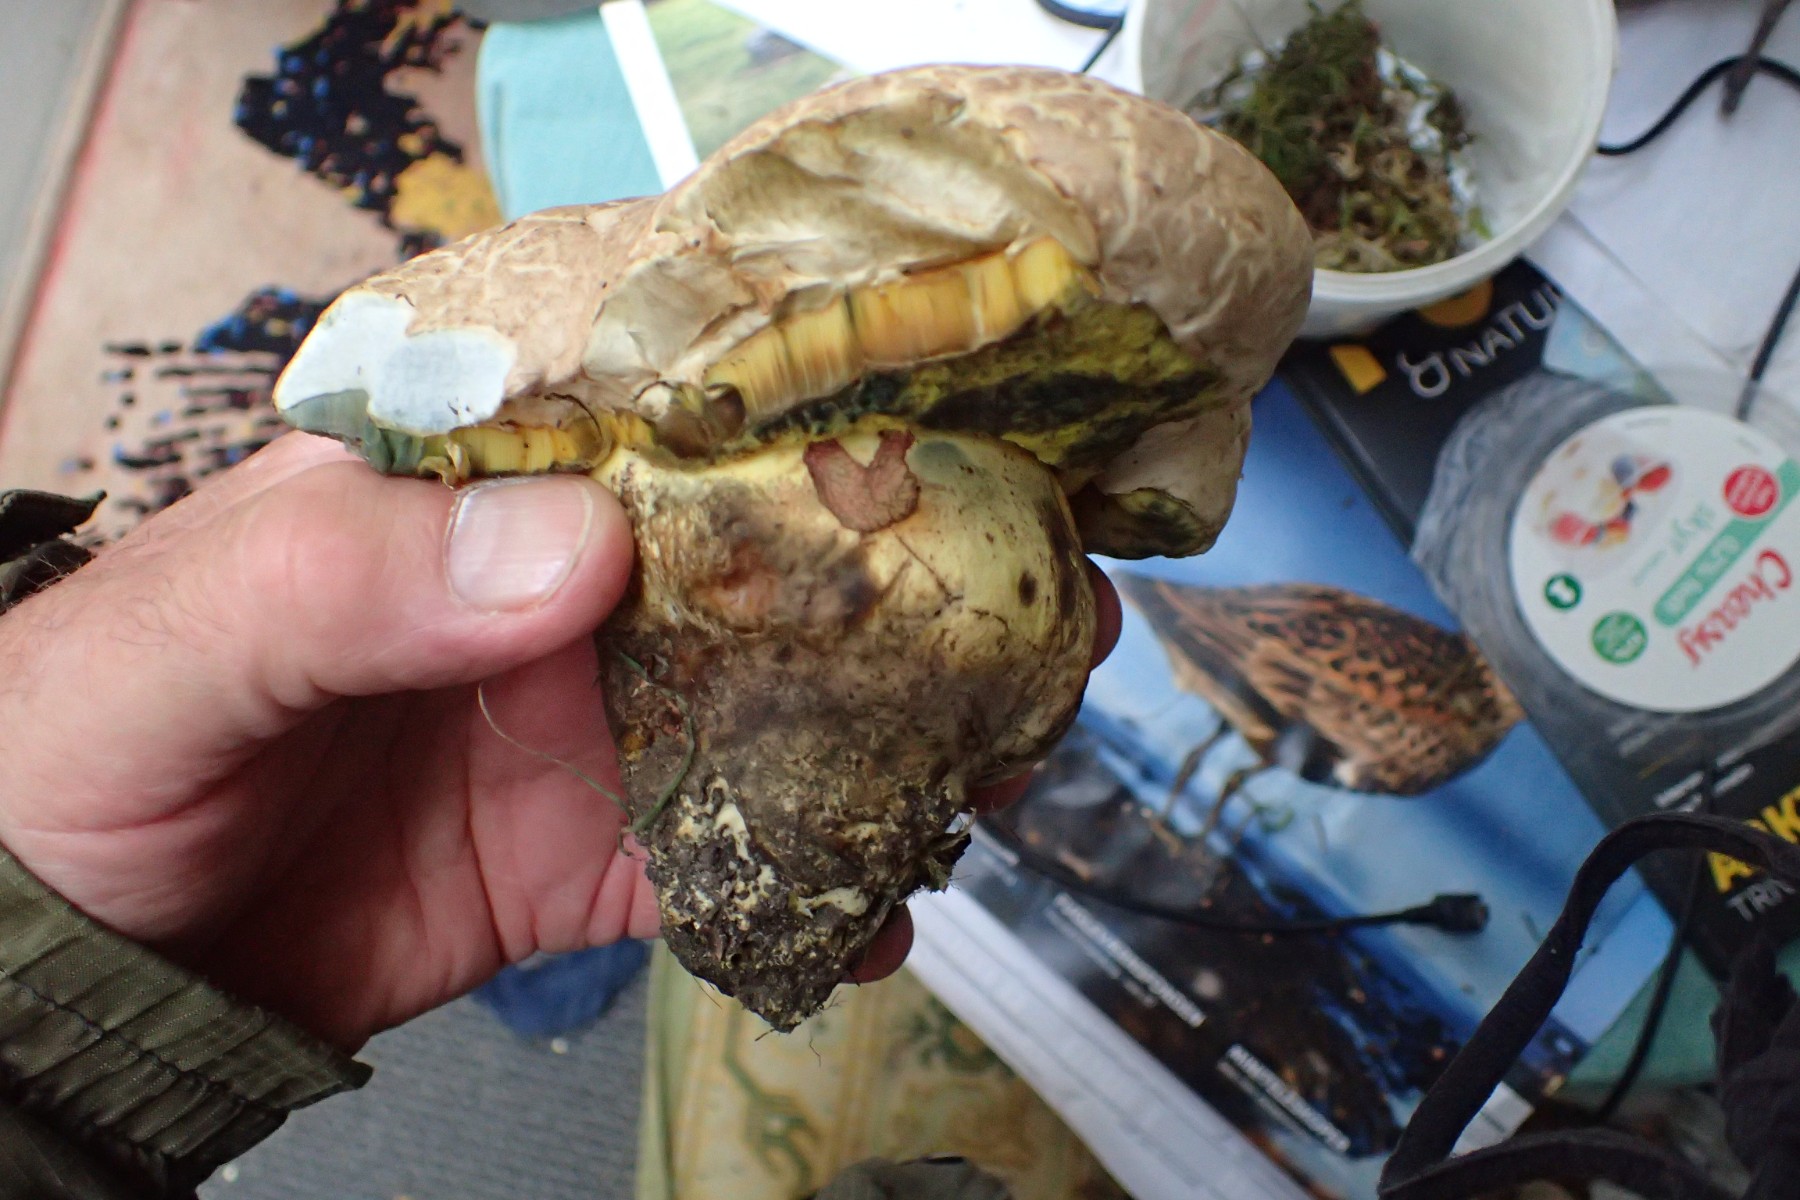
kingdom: Fungi
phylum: Basidiomycota
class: Agaricomycetes
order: Boletales
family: Boletaceae
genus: Caloboletus
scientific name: Caloboletus radicans
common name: rod-rørhat
